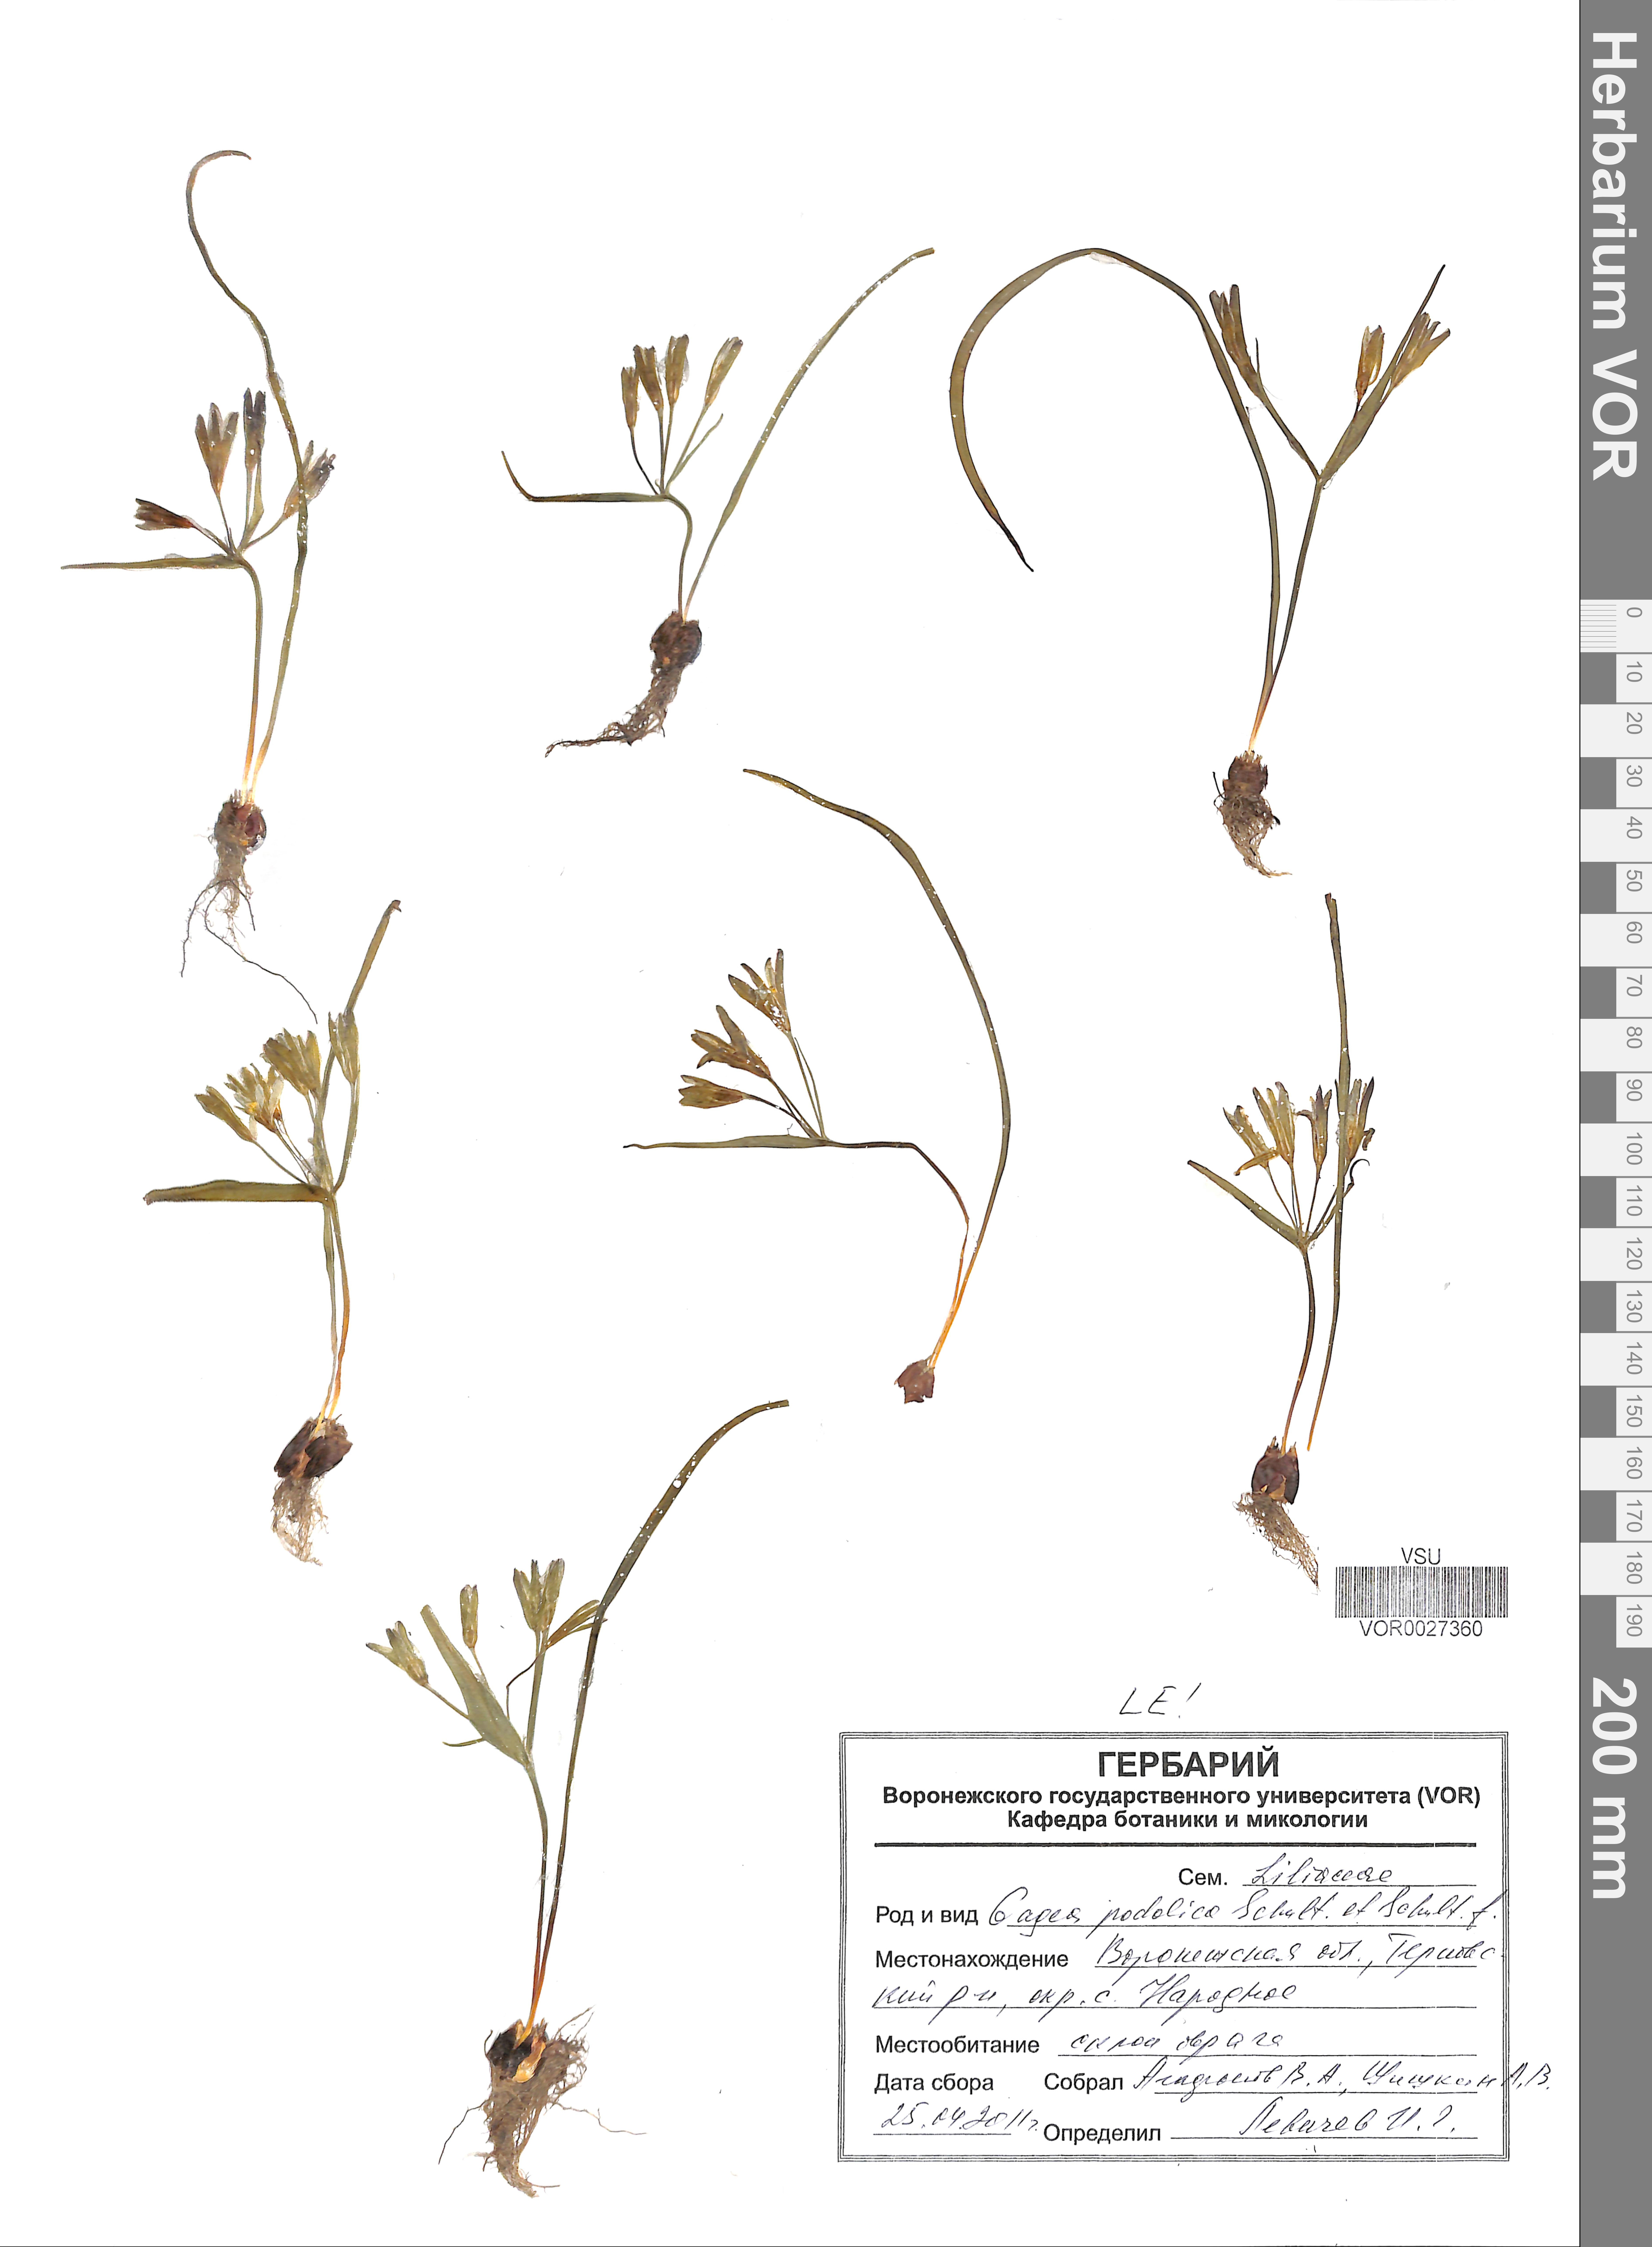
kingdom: Plantae
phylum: Tracheophyta
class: Liliopsida
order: Liliales
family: Liliaceae
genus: Gagea
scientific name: Gagea podolica
